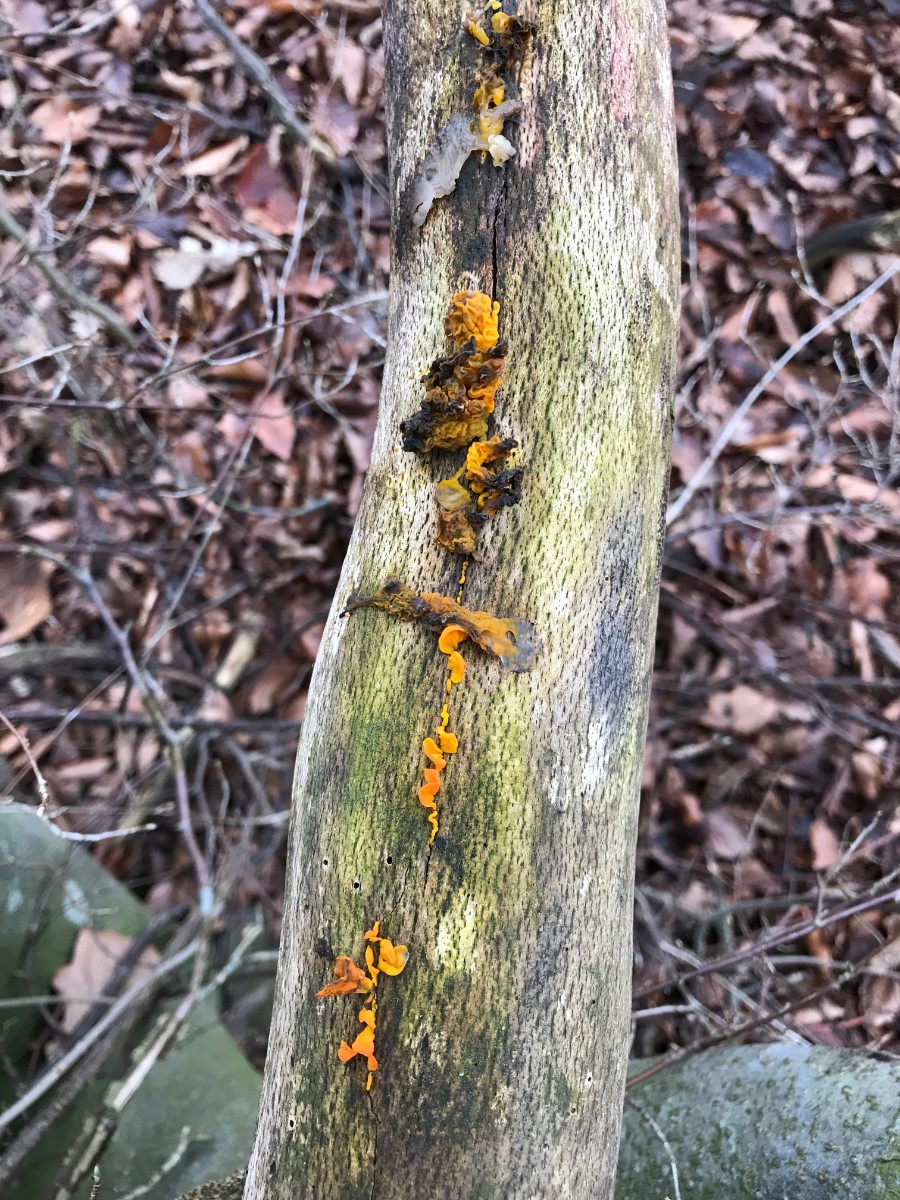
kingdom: Fungi
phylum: Basidiomycota
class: Tremellomycetes
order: Tremellales
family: Tremellaceae
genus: Tremella
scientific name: Tremella mesenterica
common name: gul bævresvamp
